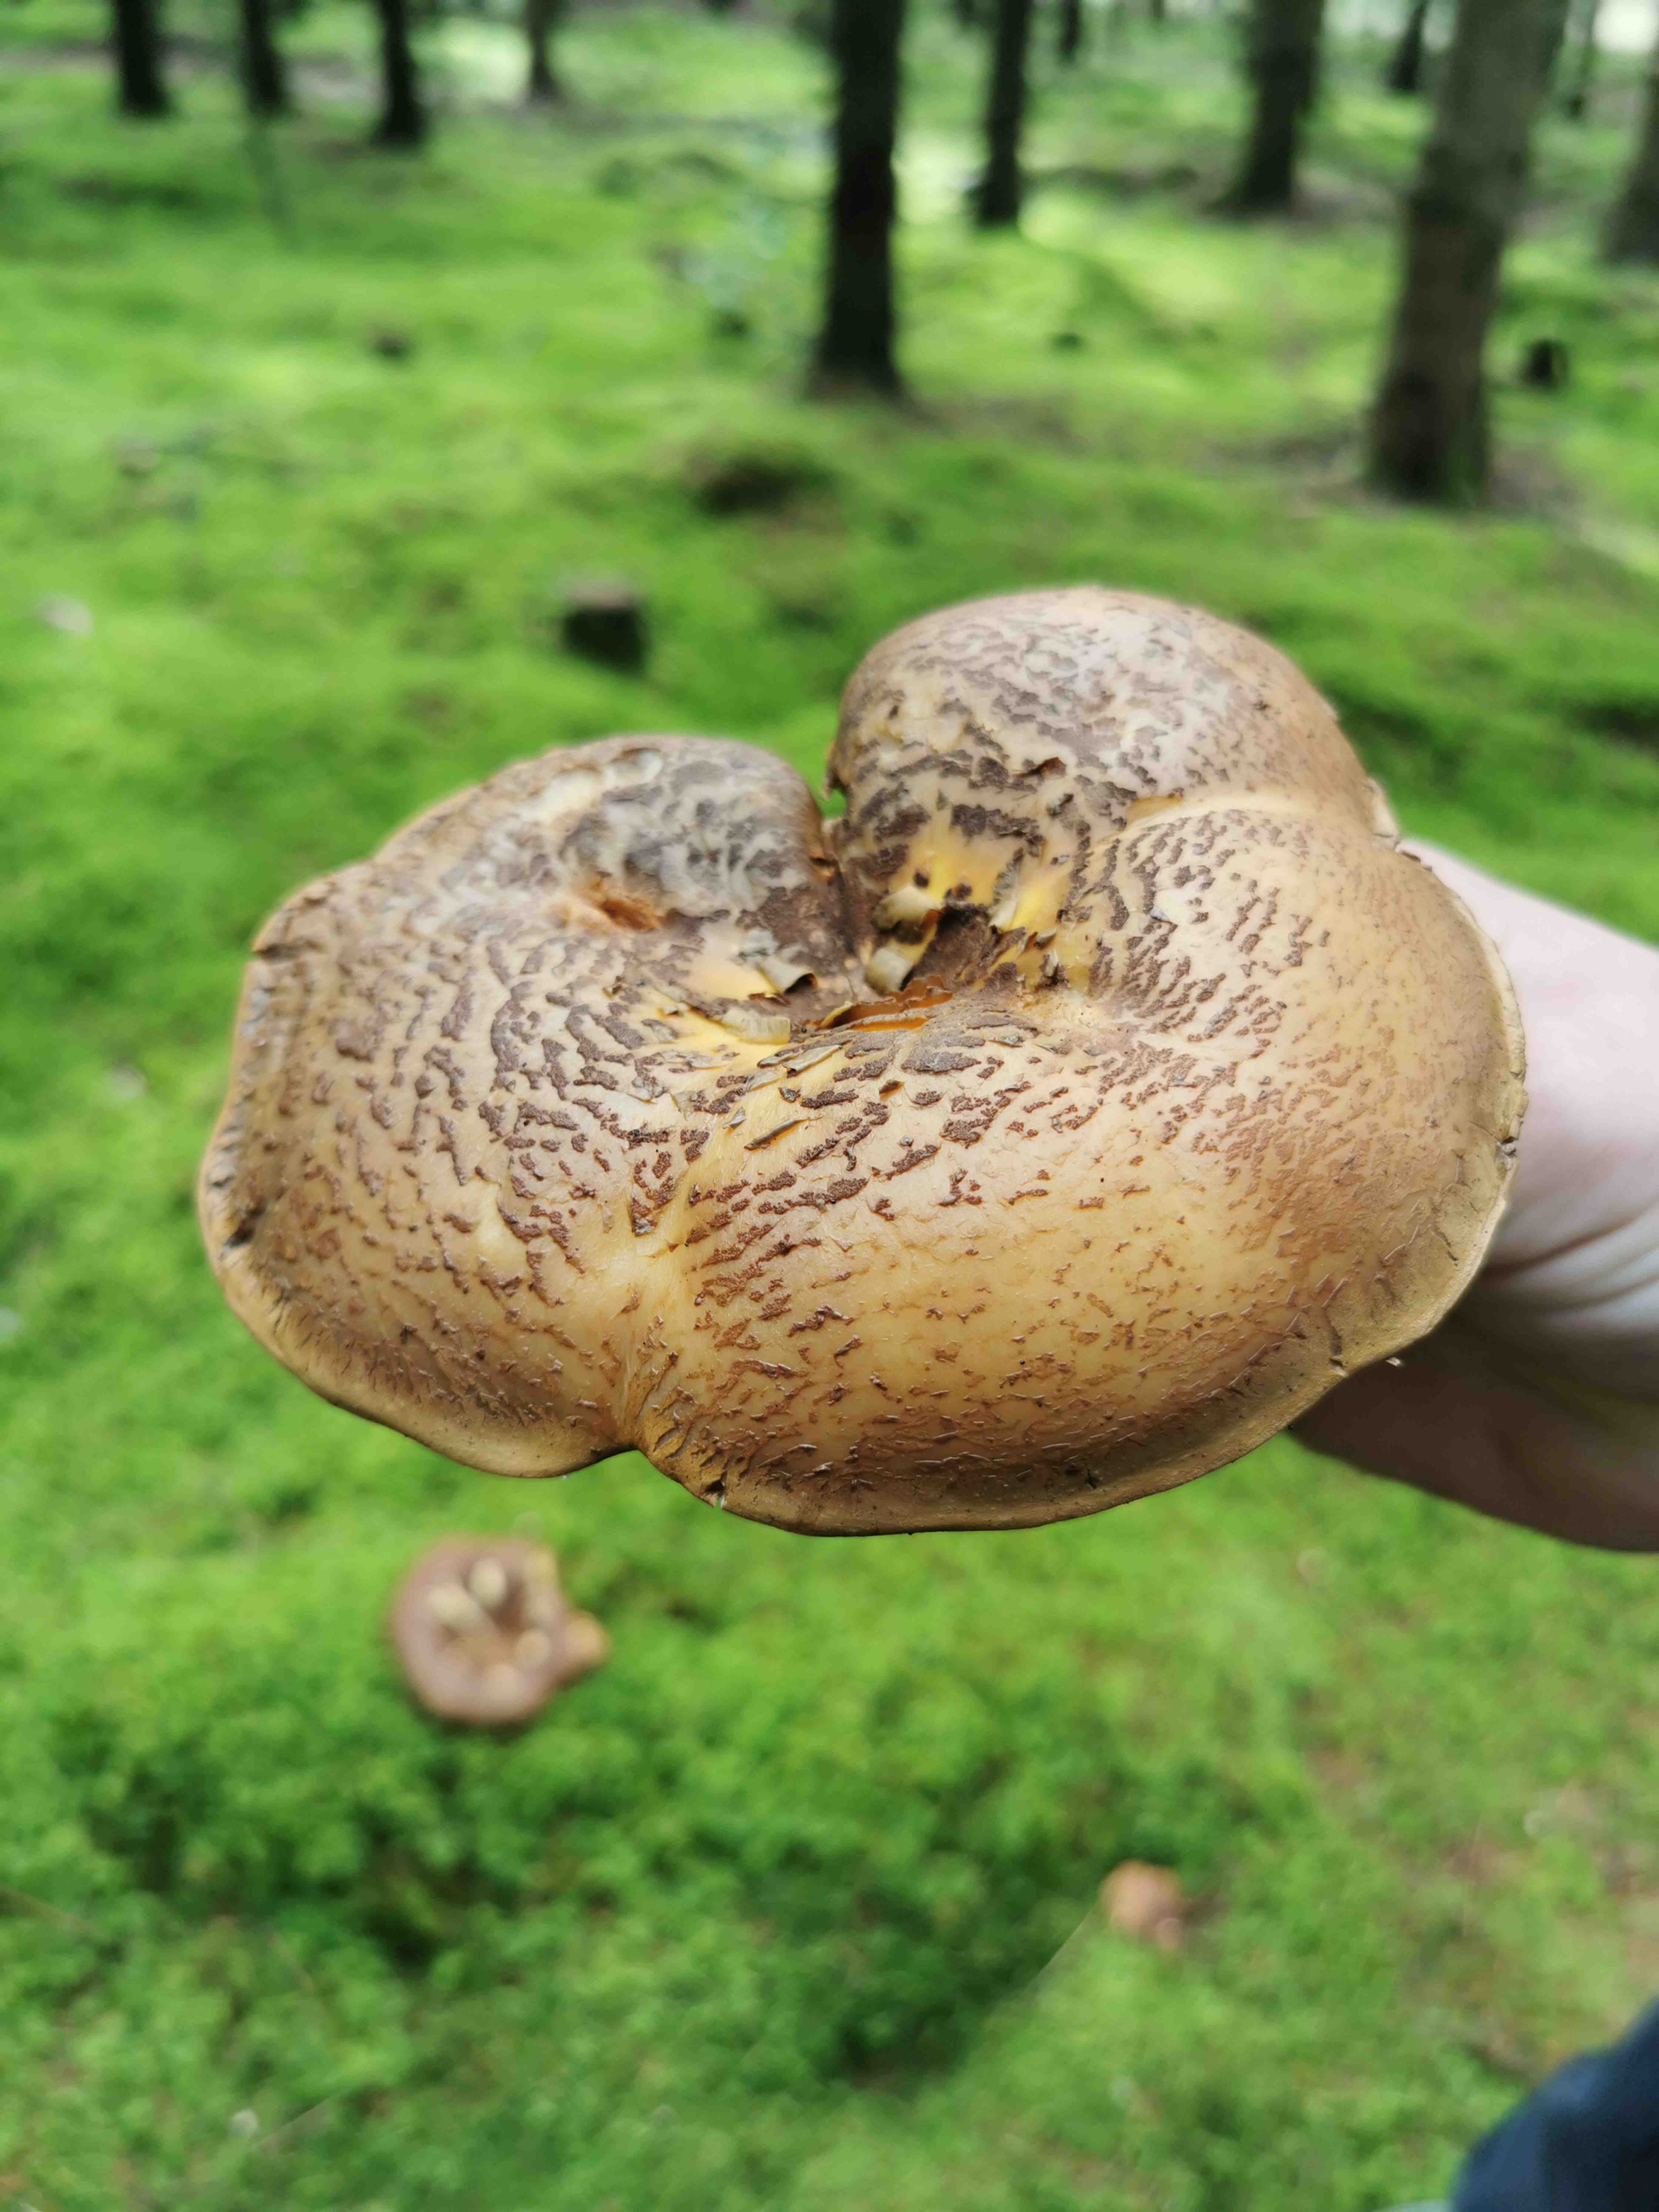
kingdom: Fungi
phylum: Basidiomycota
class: Agaricomycetes
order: Boletales
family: Paxillaceae
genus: Paxillus
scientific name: Paxillus involutus
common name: almindelig netbladhat
